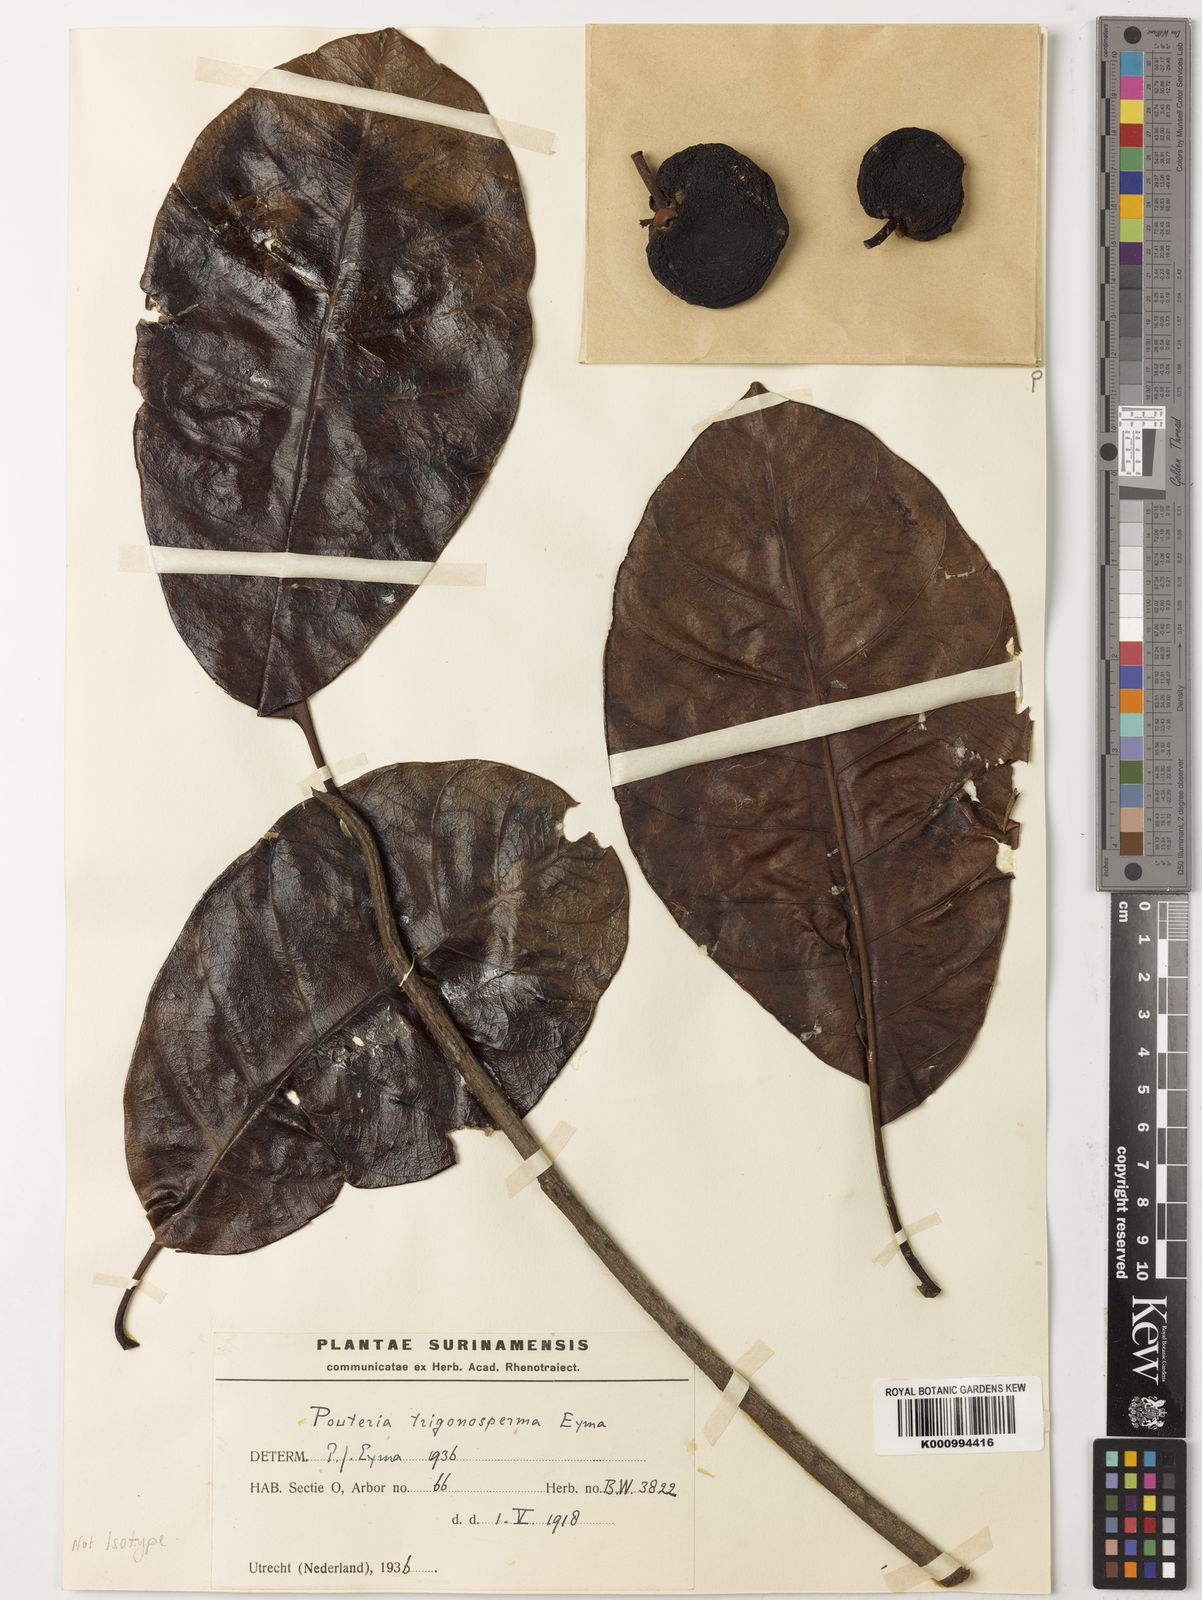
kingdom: Plantae
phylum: Tracheophyta
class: Magnoliopsida
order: Ericales
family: Sapotaceae
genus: Pouteria
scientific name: Pouteria trigonosperma
